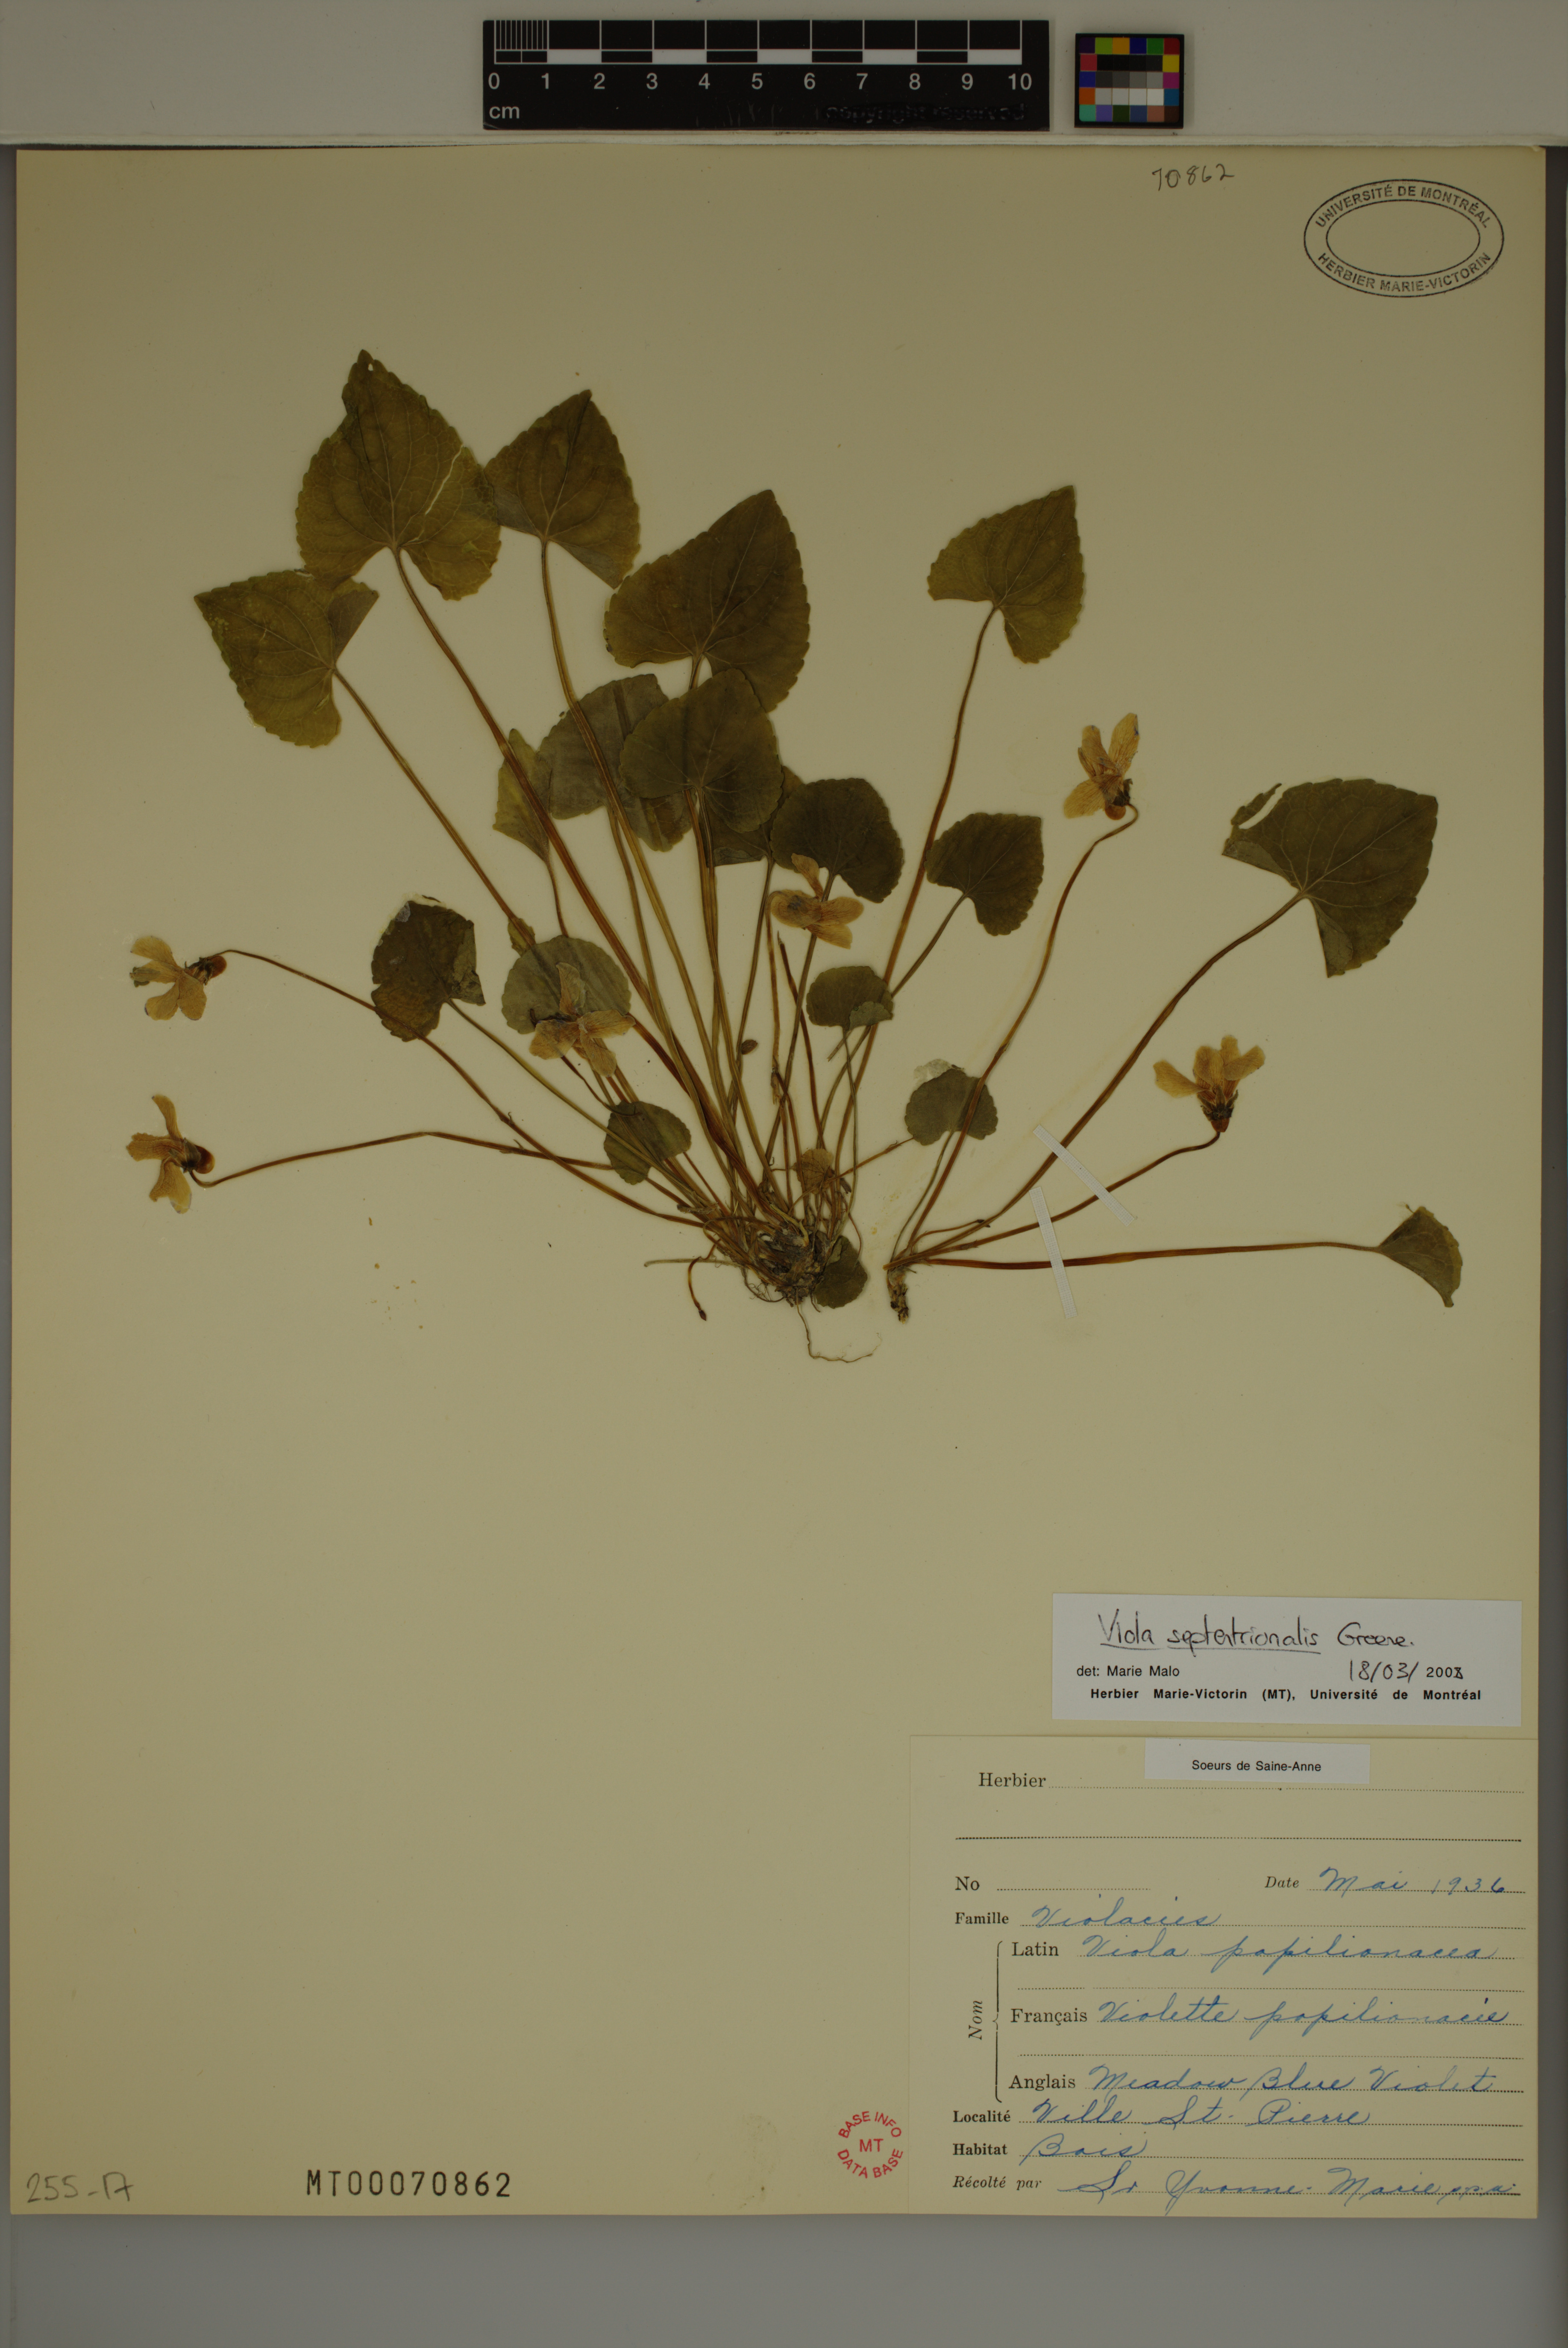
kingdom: Plantae
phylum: Tracheophyta
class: Magnoliopsida
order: Malpighiales
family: Violaceae
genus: Viola
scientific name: Viola sororia
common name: Dooryard violet
